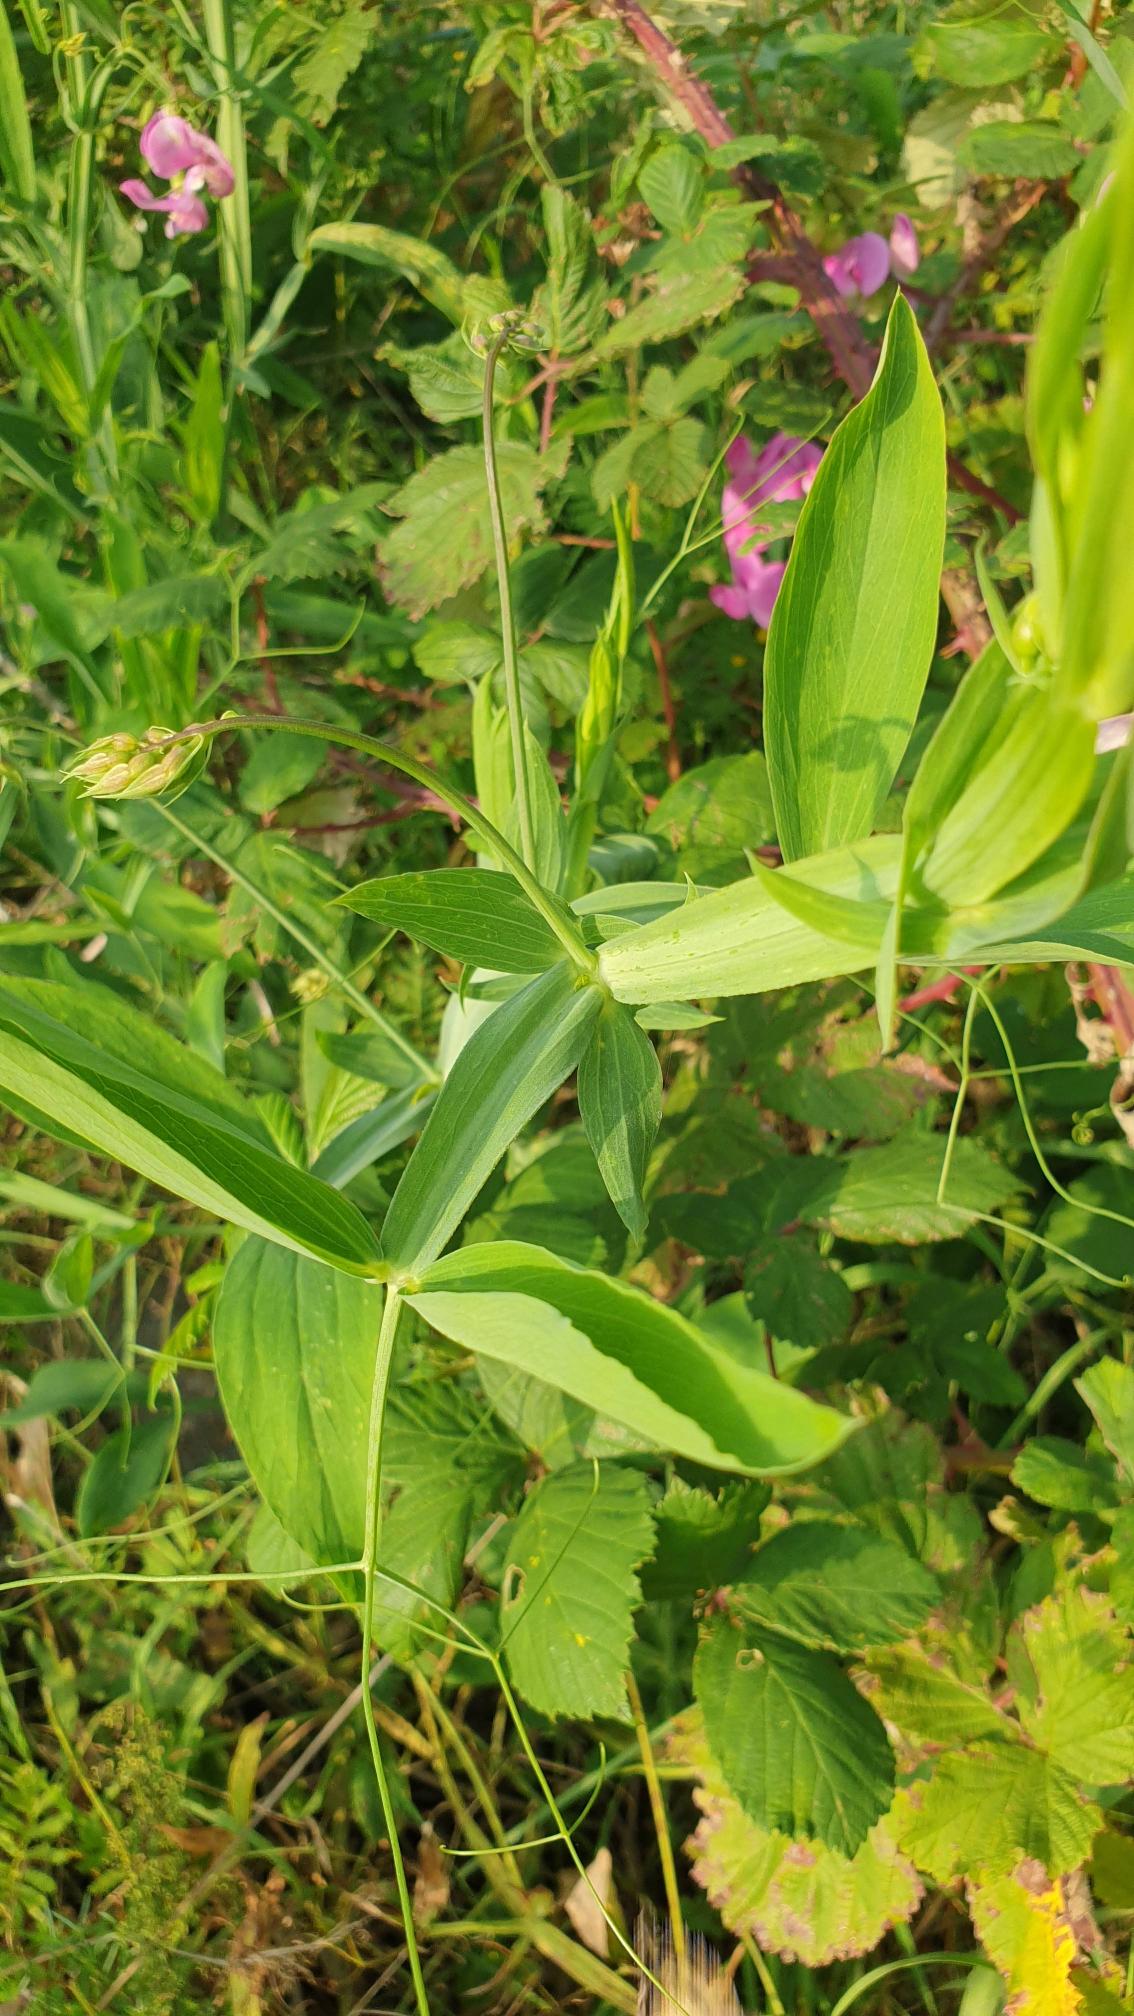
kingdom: Plantae
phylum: Tracheophyta
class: Magnoliopsida
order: Fabales
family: Fabaceae
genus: Lathyrus
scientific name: Lathyrus latifolius
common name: Flerårig ærteblomst
